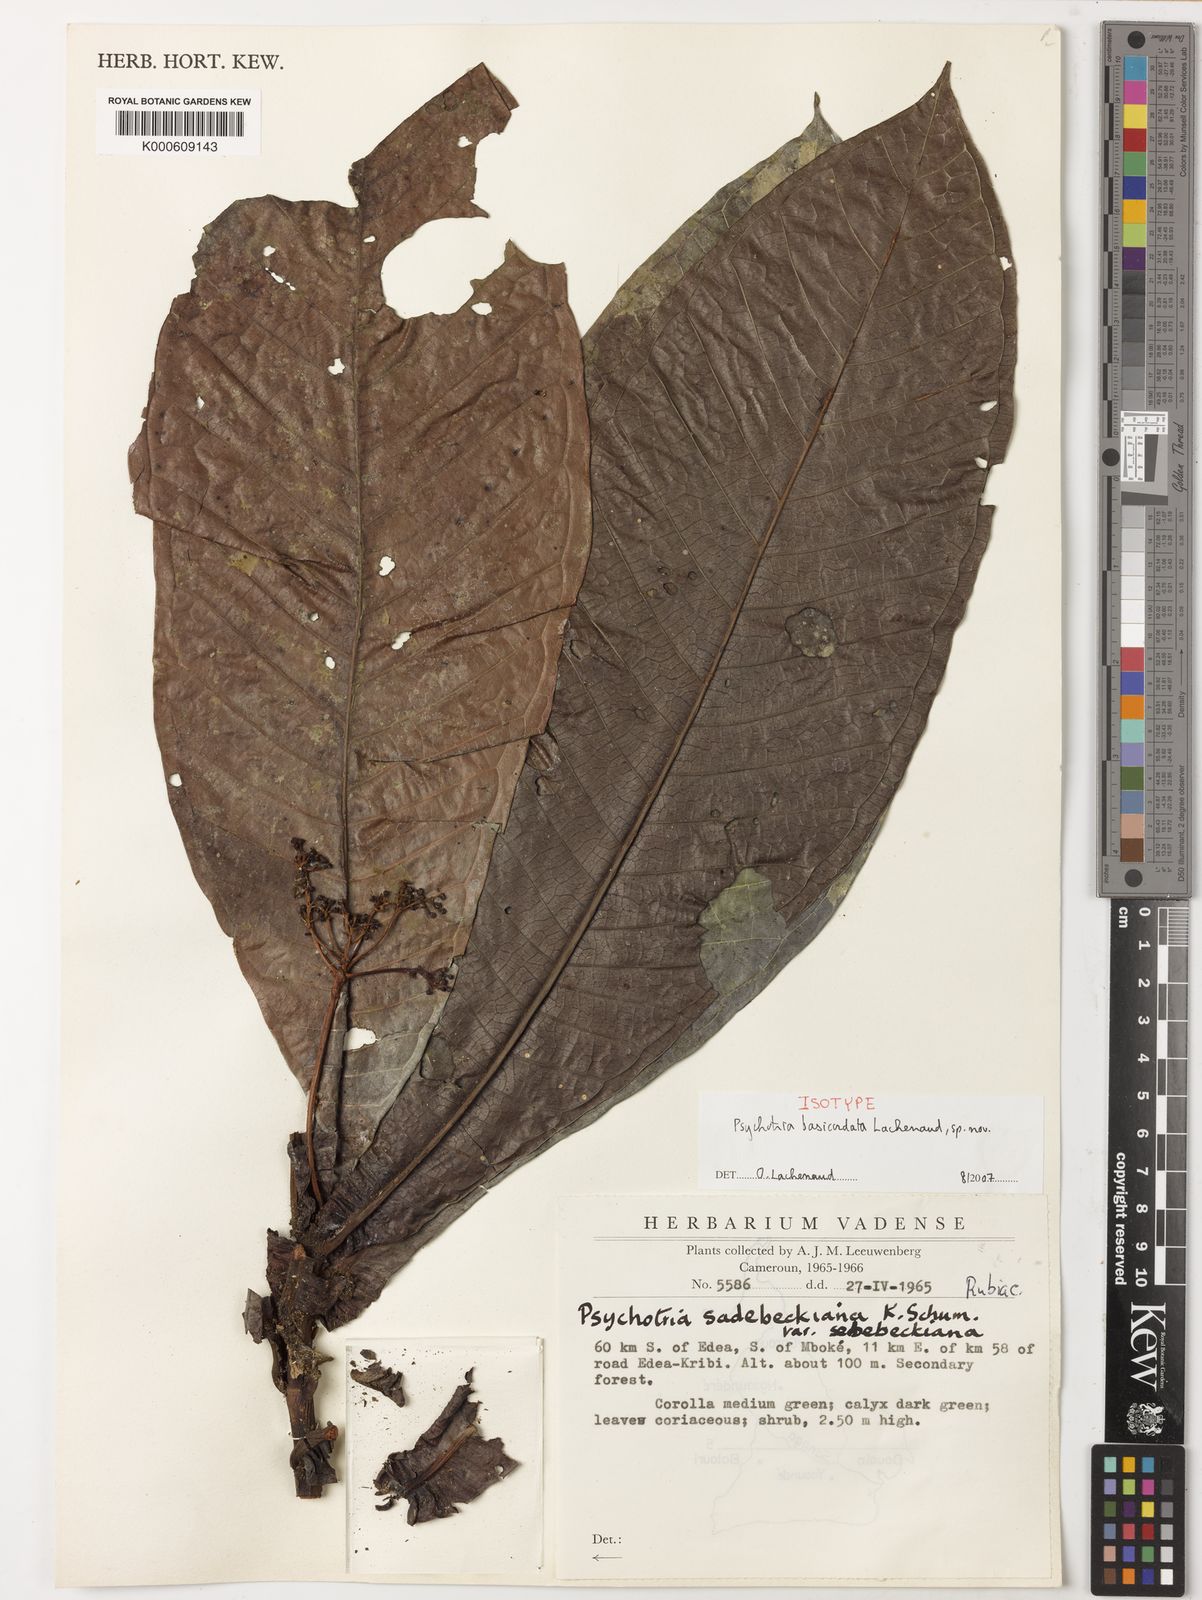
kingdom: Plantae
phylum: Tracheophyta
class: Magnoliopsida
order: Gentianales
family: Rubiaceae
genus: Psychotria
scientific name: Psychotria basicordata
